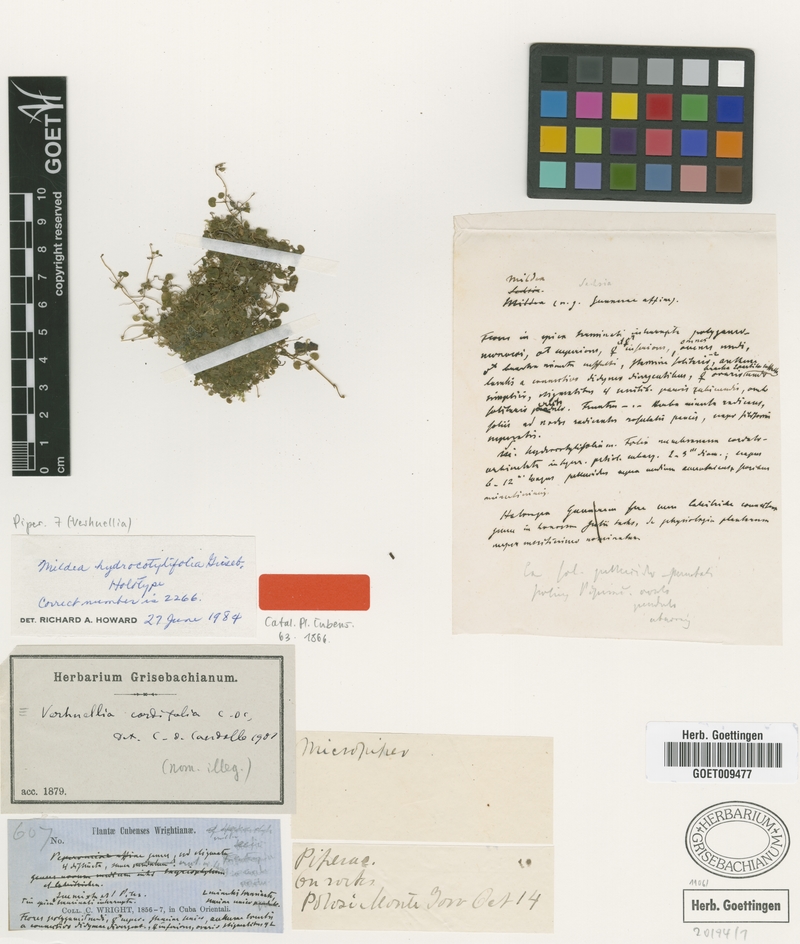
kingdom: Plantae
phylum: Tracheophyta
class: Magnoliopsida
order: Piperales
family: Piperaceae
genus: Verhuellia
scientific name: Verhuellia hydrocotylifolia
